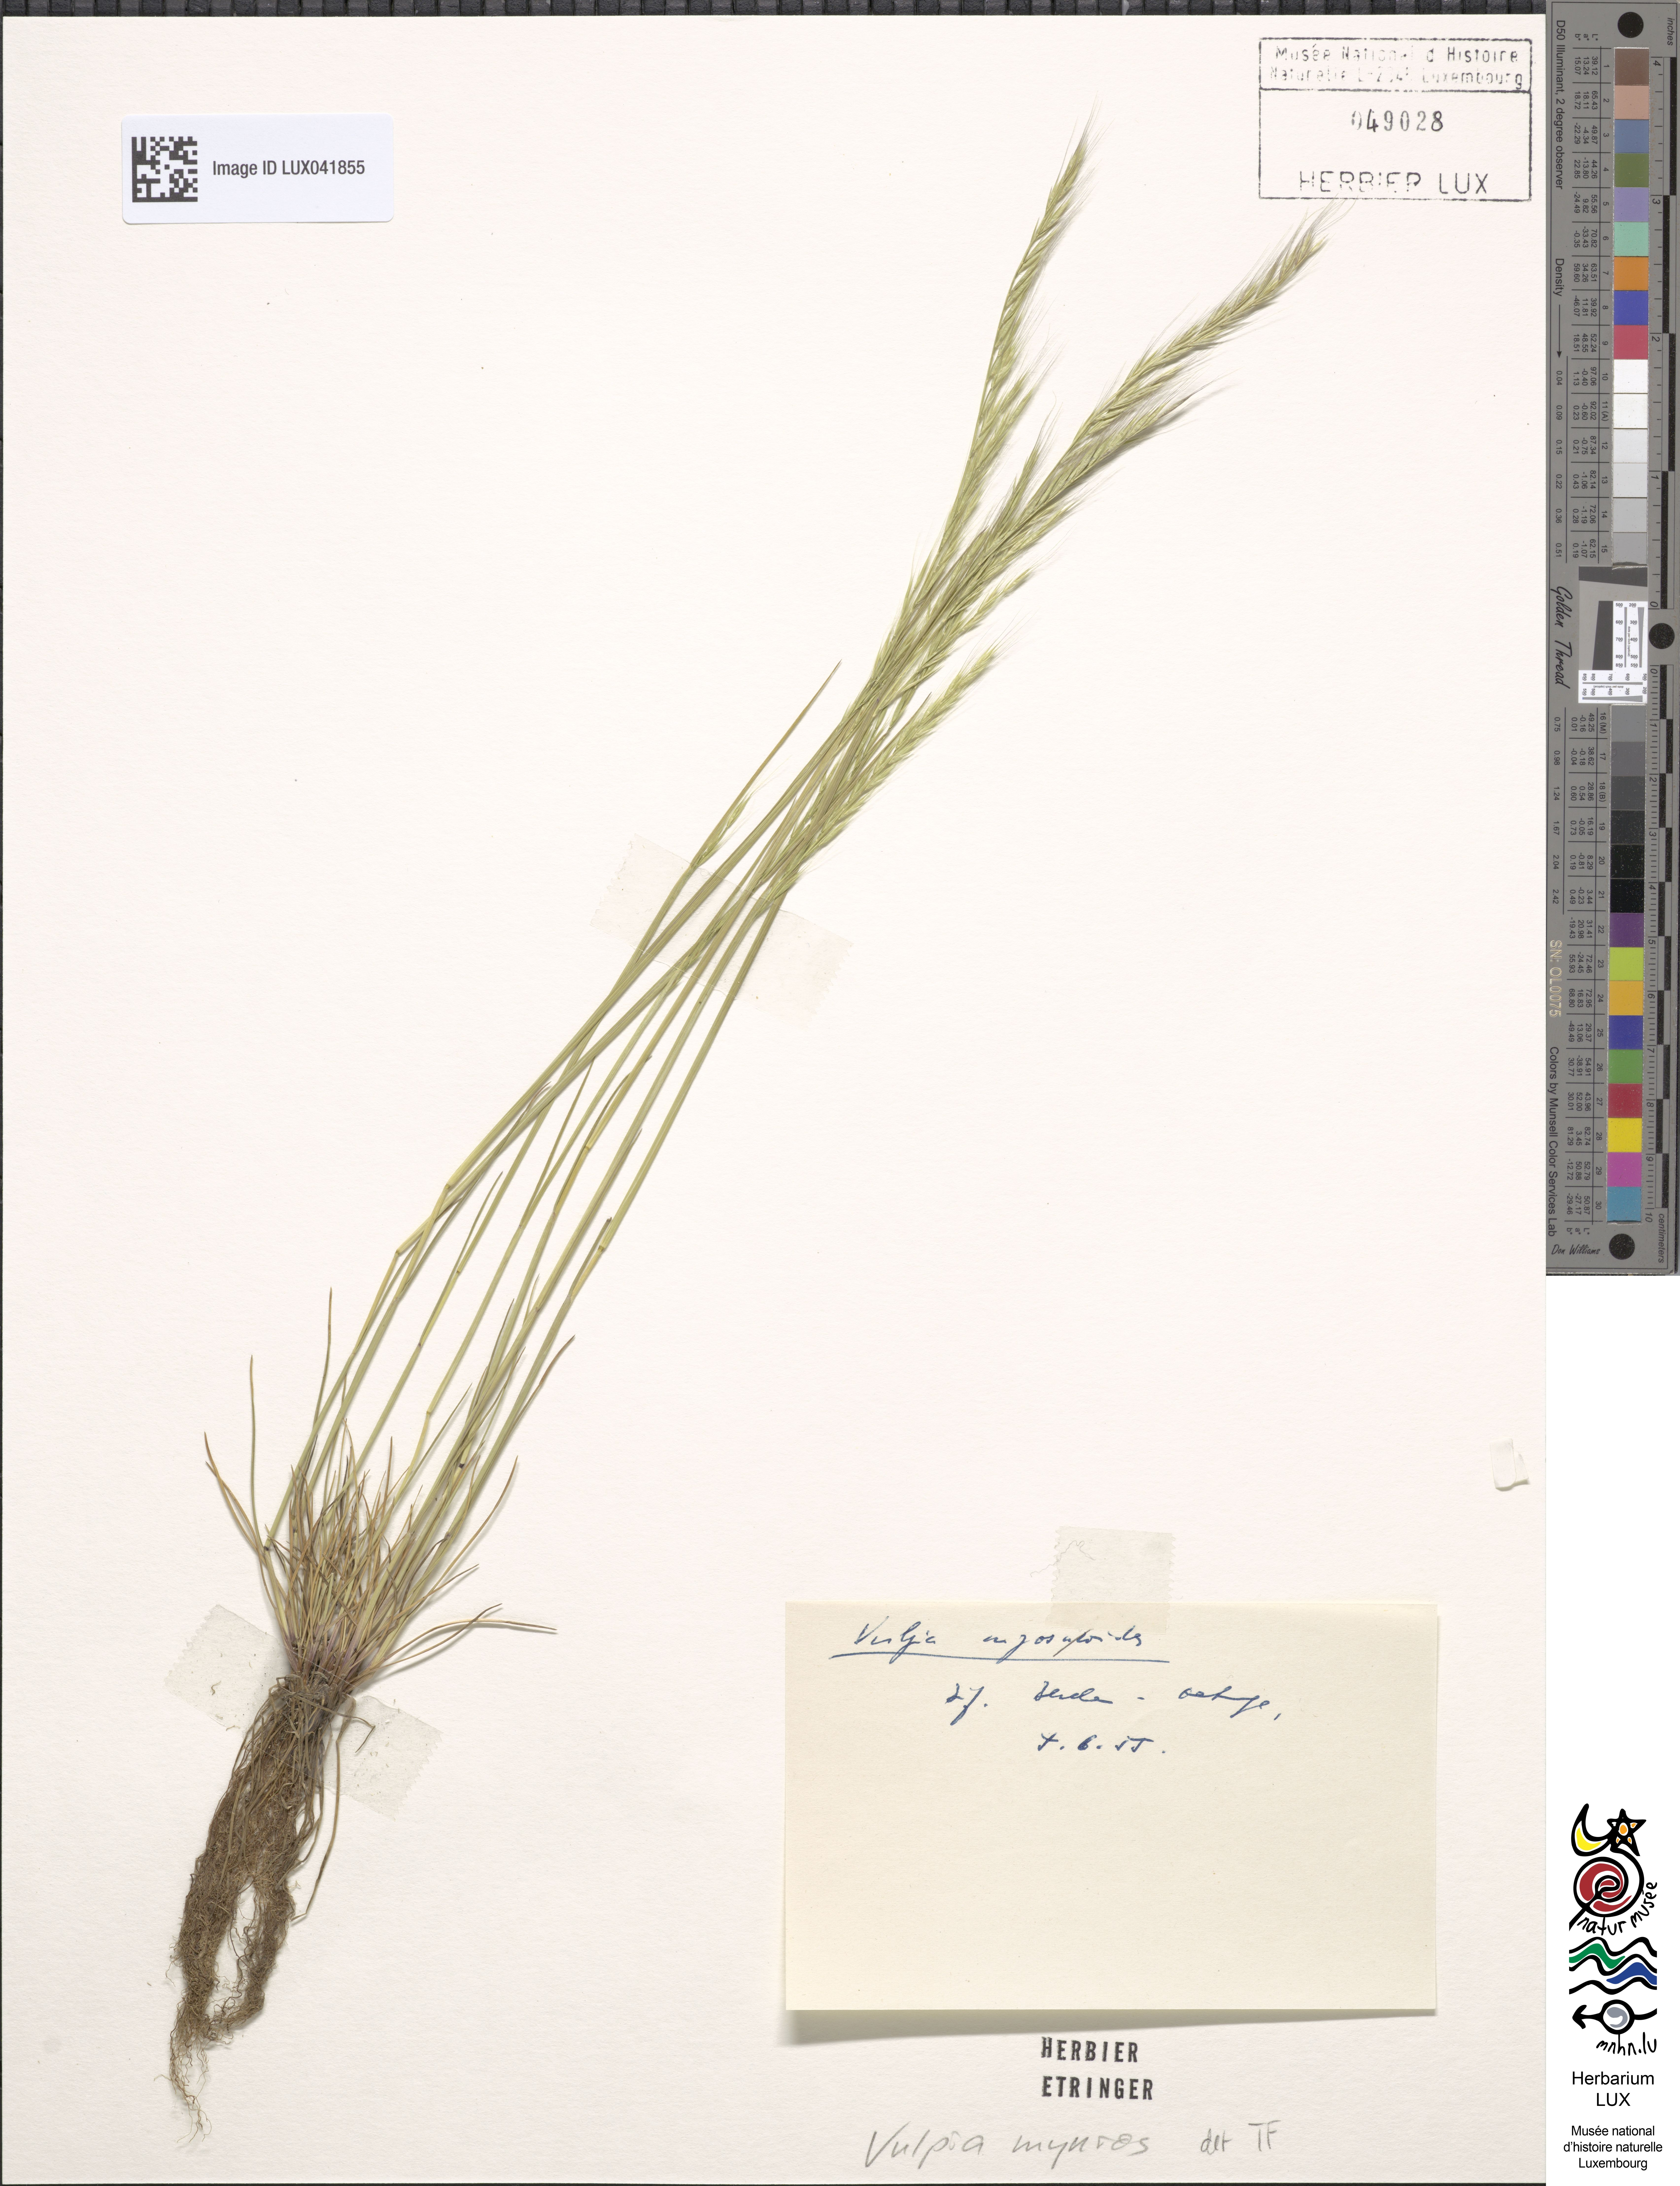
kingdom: Plantae
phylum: Tracheophyta
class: Liliopsida
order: Poales
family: Poaceae
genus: Festuca
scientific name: Festuca myuros
